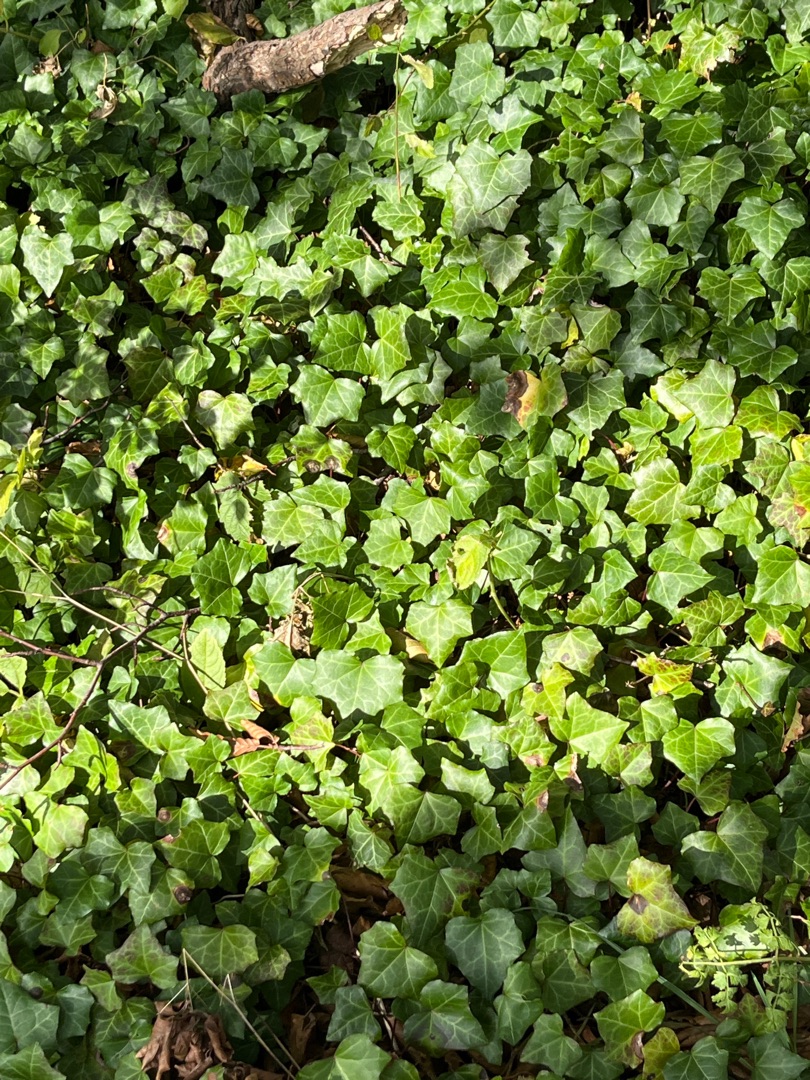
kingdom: Plantae
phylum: Tracheophyta
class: Magnoliopsida
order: Apiales
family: Araliaceae
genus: Hedera
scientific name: Hedera helix
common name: Vedbend
